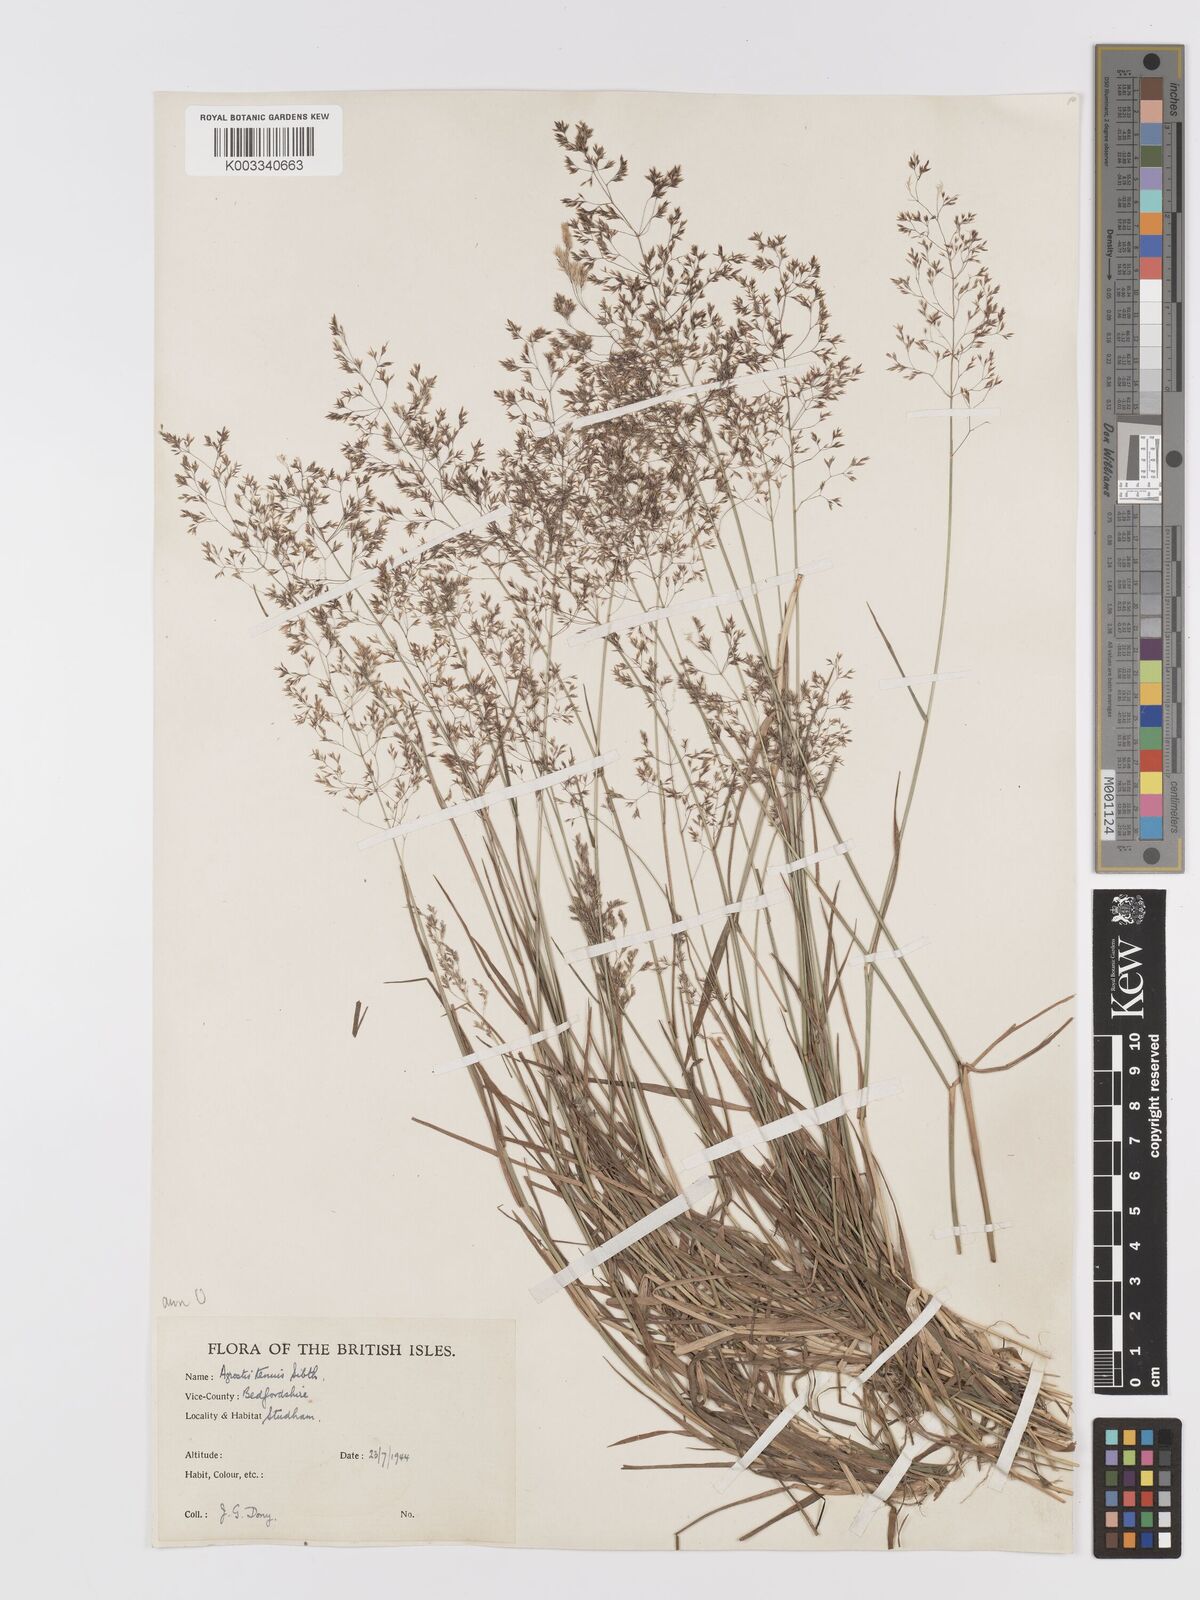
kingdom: Plantae
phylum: Tracheophyta
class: Liliopsida
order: Poales
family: Poaceae
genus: Agrostis
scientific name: Agrostis capillaris
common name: Colonial bentgrass
